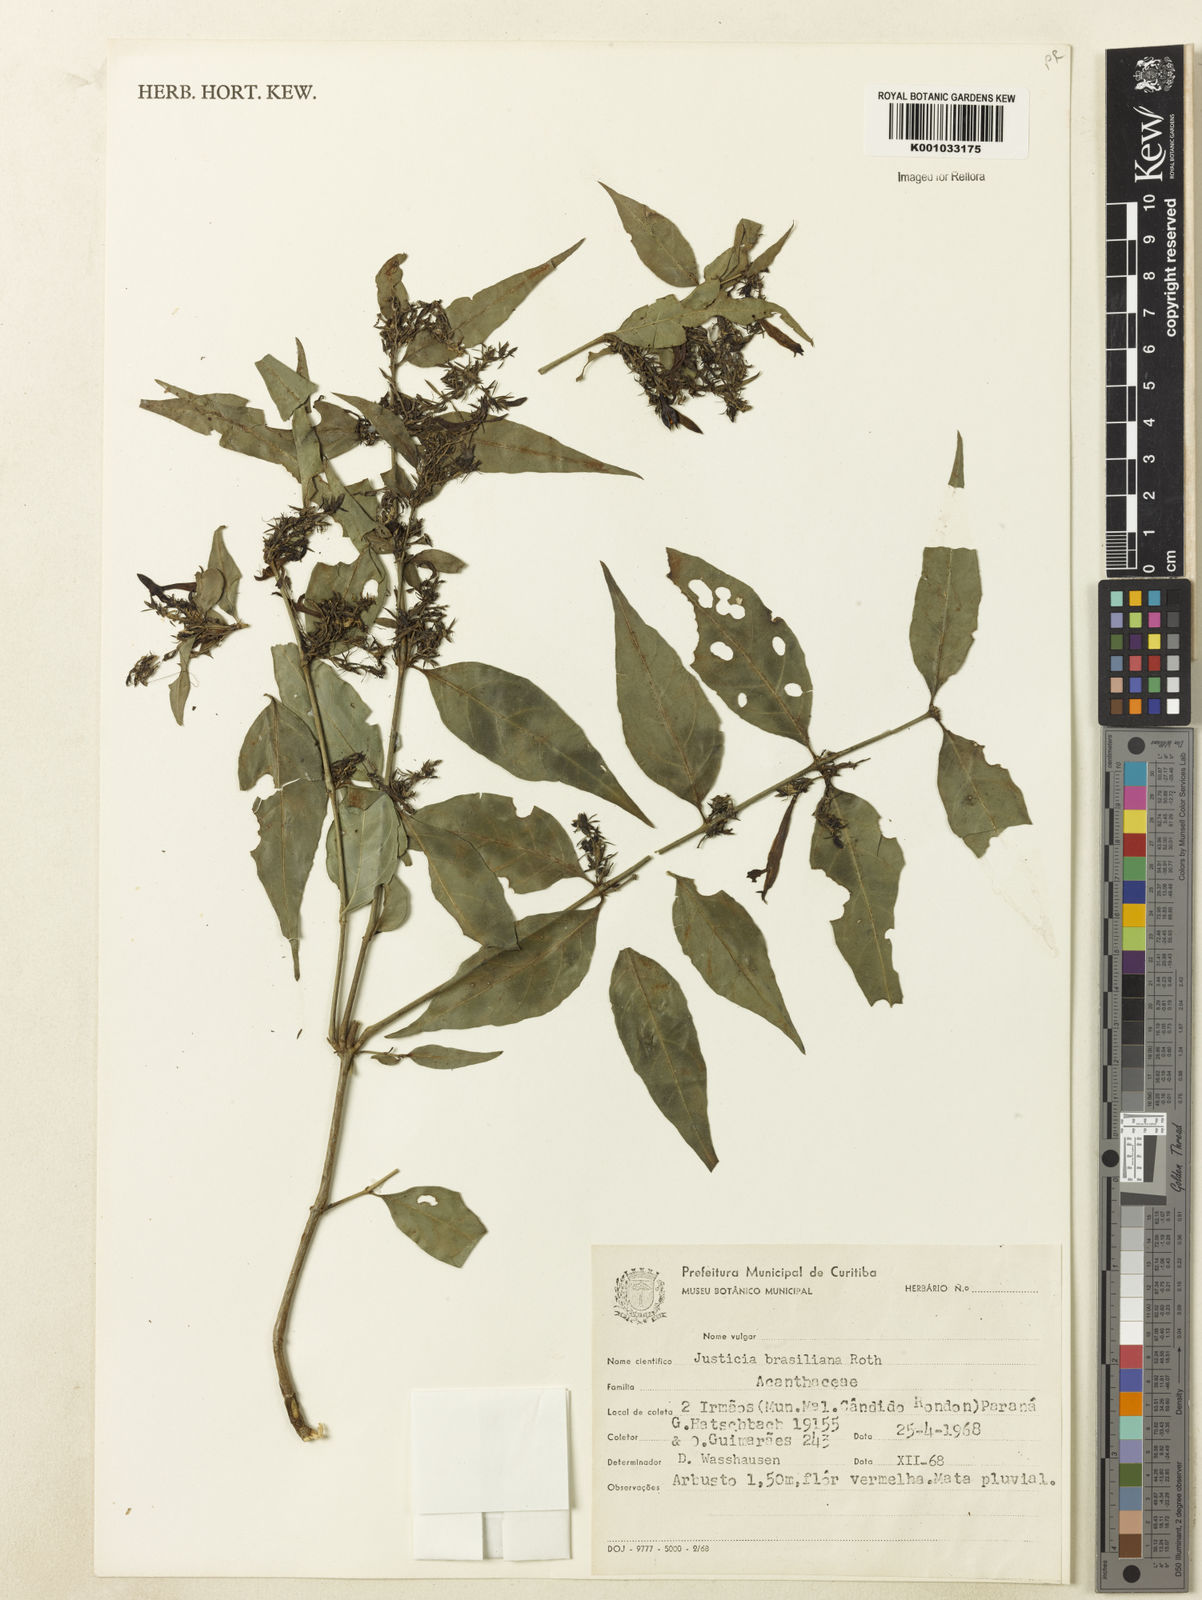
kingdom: Plantae
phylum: Tracheophyta
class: Magnoliopsida
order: Lamiales
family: Acanthaceae
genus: Justicia
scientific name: Justicia brasiliana
